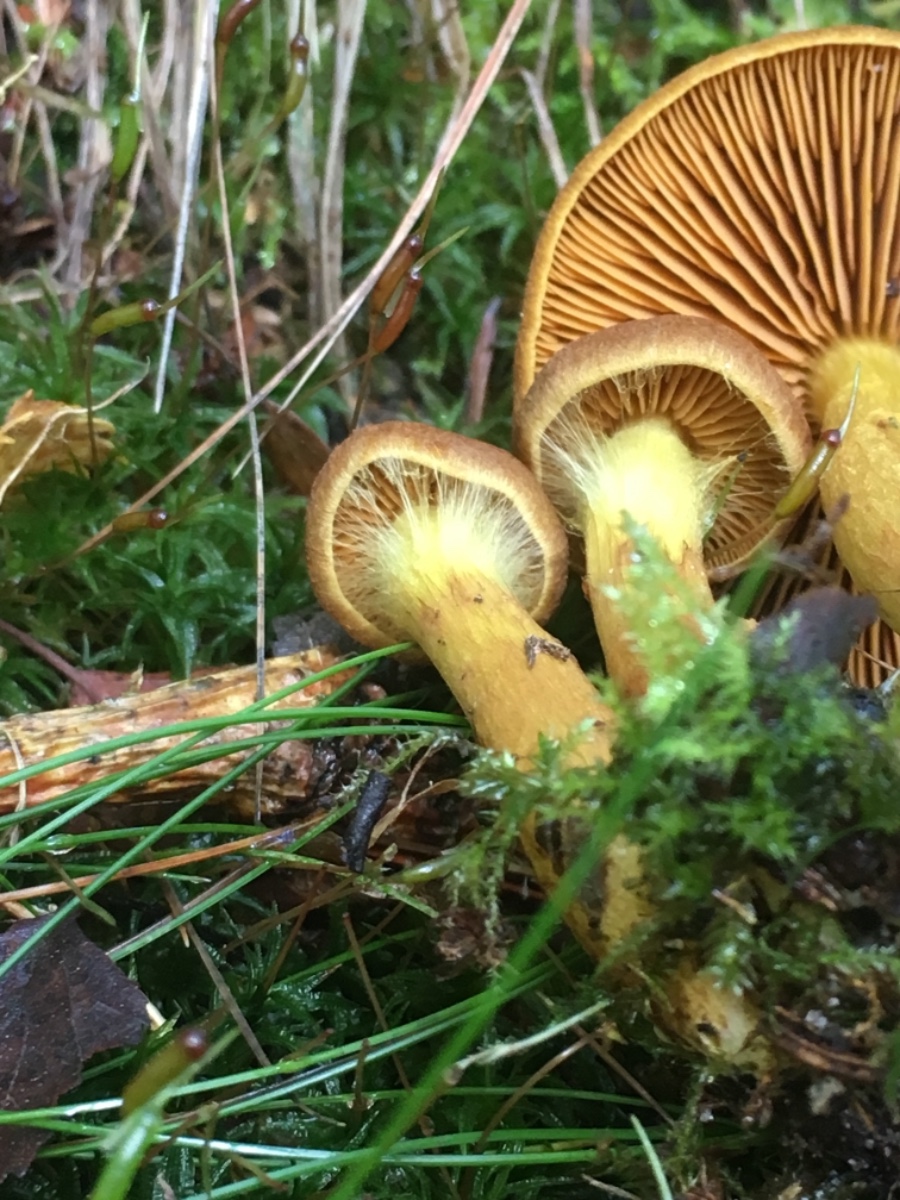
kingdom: Fungi
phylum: Basidiomycota
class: Agaricomycetes
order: Agaricales
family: Cortinariaceae
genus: Cortinarius
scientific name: Cortinarius
